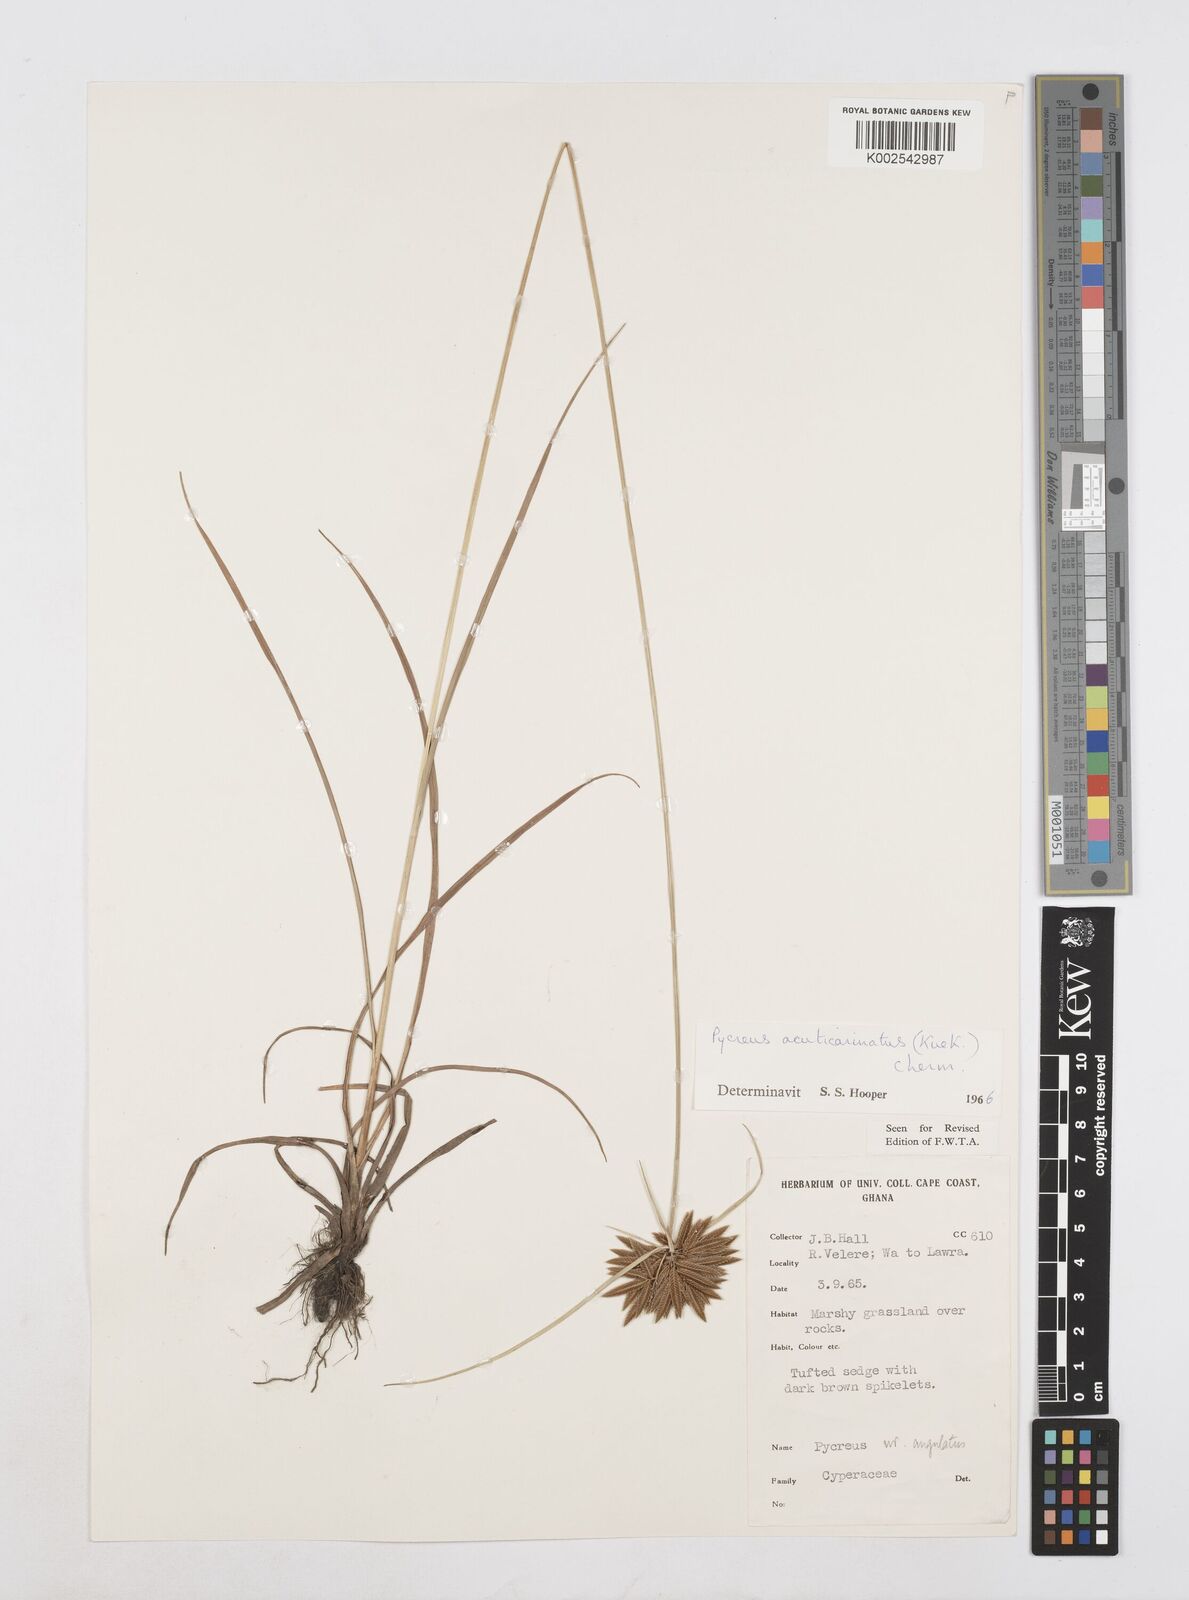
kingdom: Plantae
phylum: Tracheophyta
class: Liliopsida
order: Poales
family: Cyperaceae
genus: Cyperus
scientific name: Cyperus acuticarinatus
